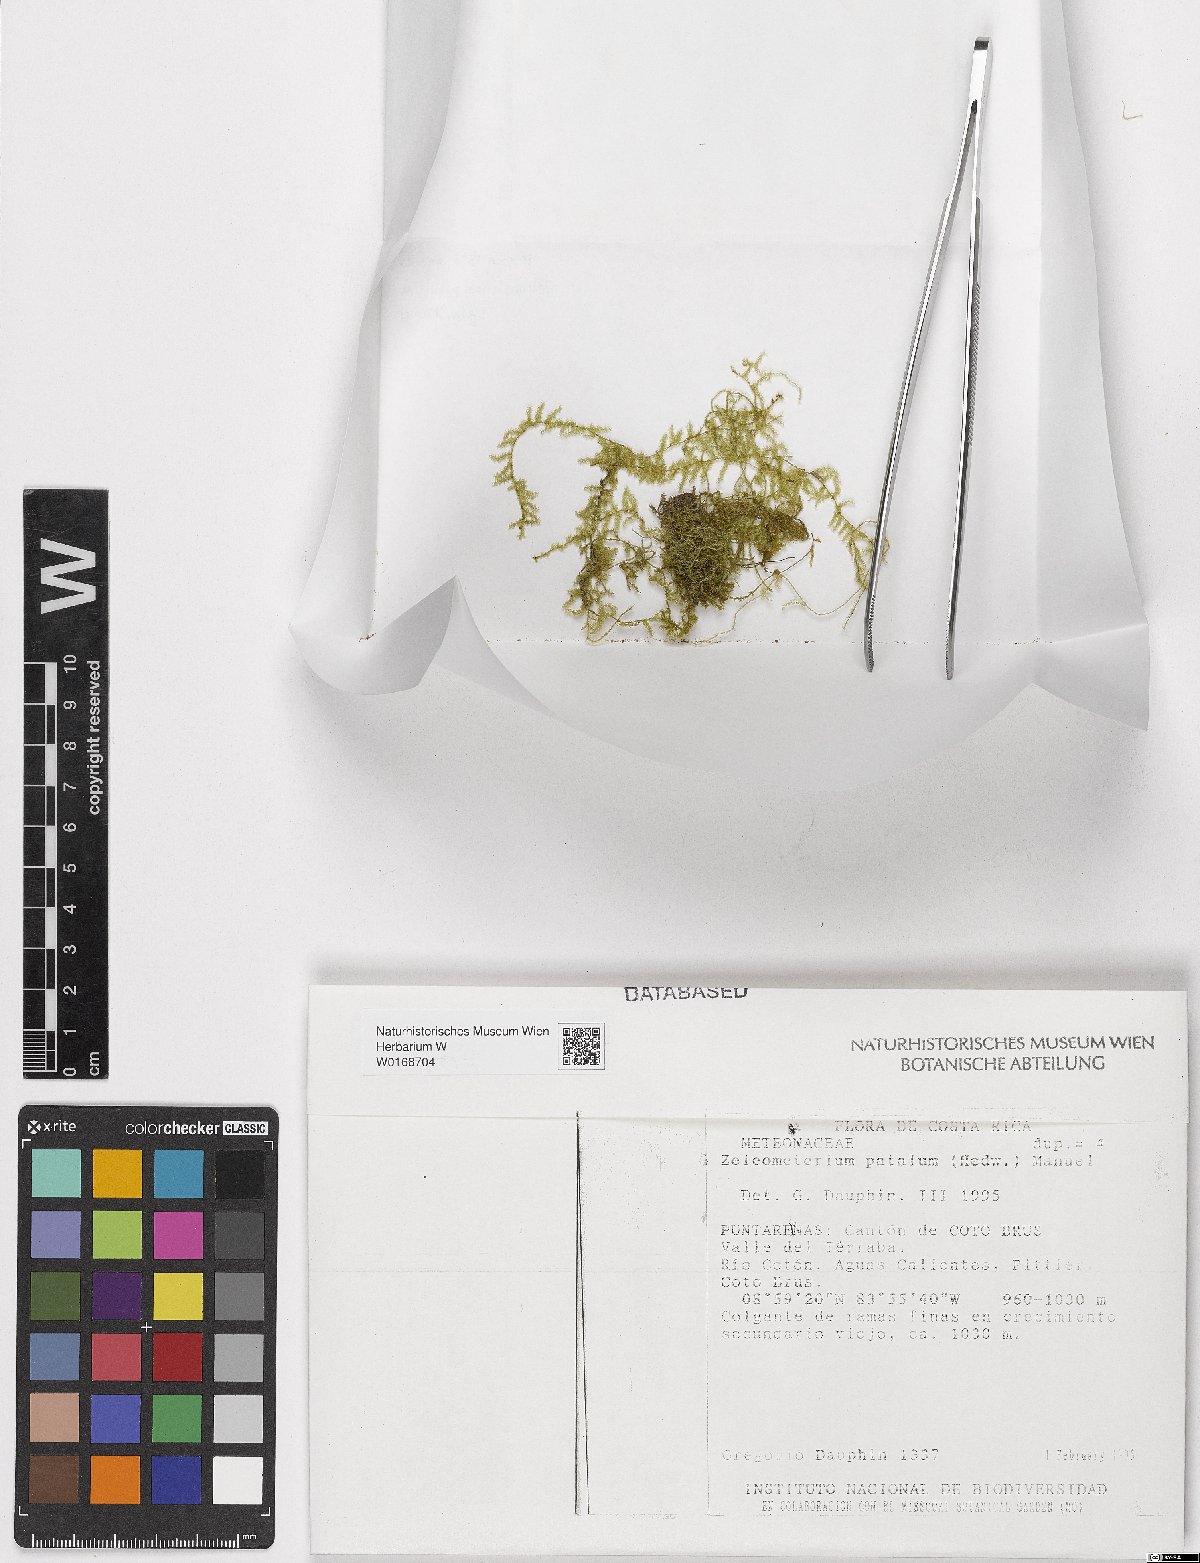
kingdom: Plantae
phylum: Bryophyta
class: Bryopsida
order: Hypnales
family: Brachytheciaceae
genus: Zelometeorium
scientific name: Zelometeorium patulum
